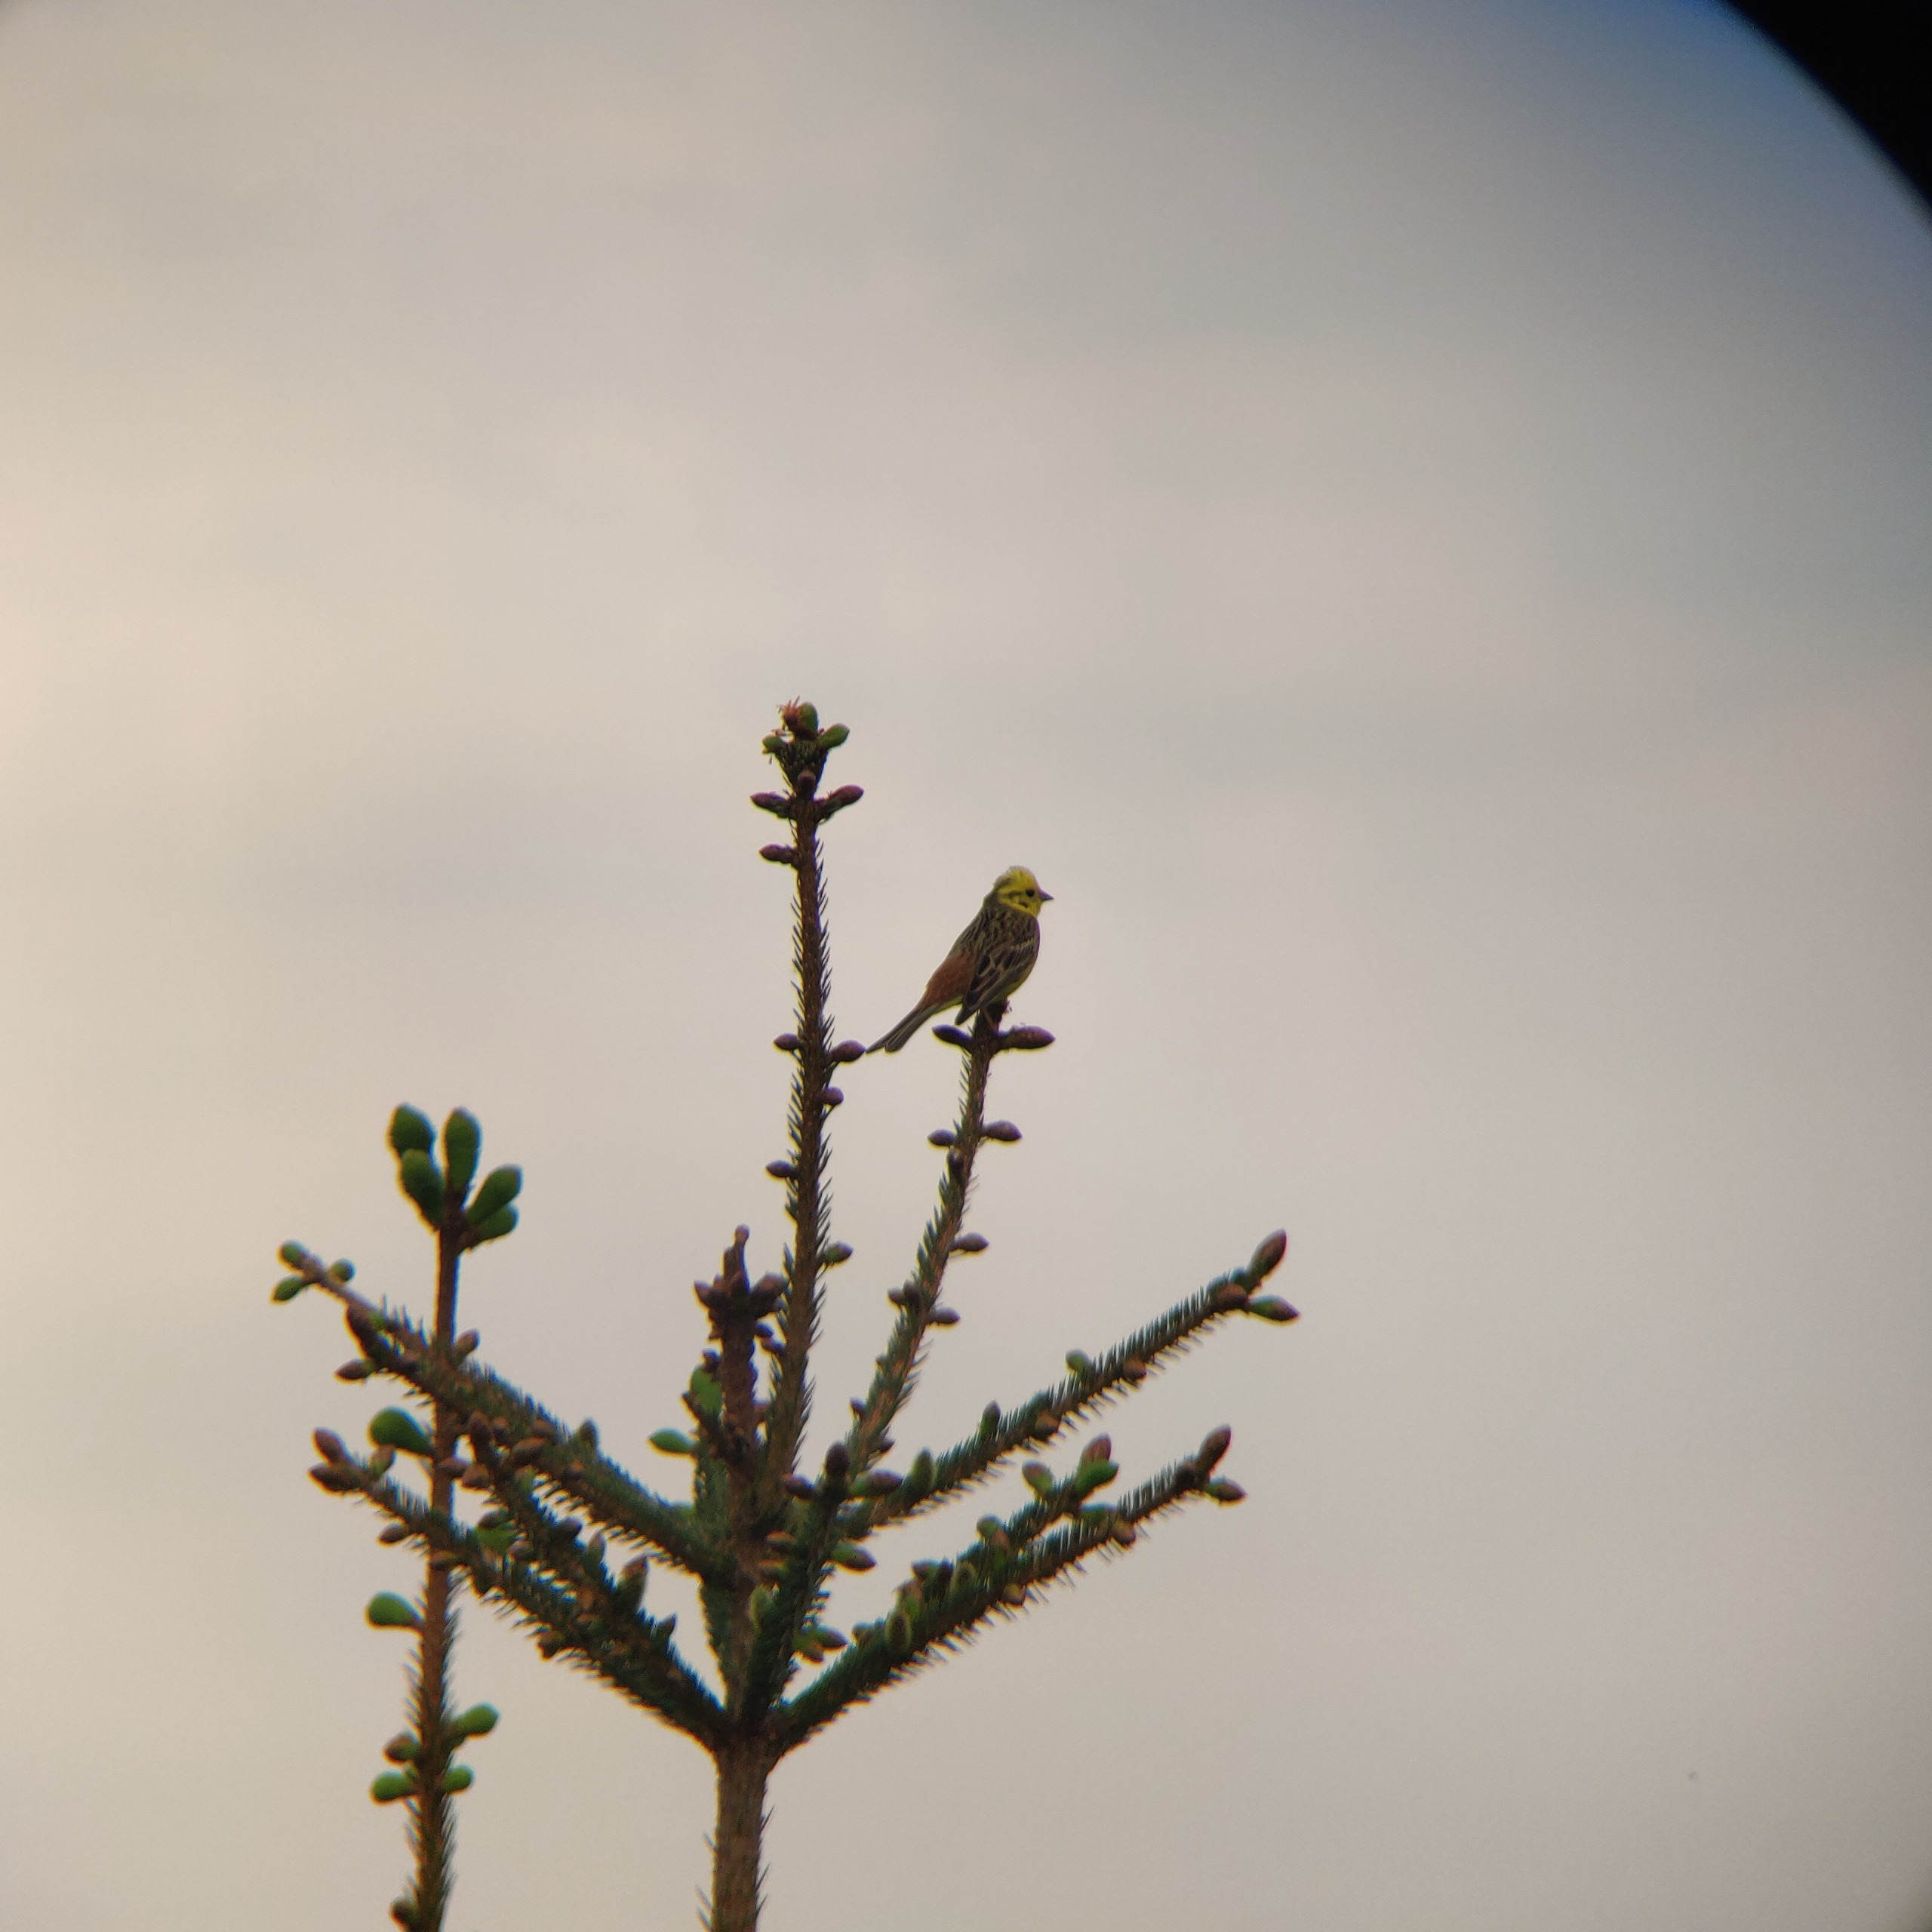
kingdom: Animalia
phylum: Chordata
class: Aves
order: Passeriformes
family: Emberizidae
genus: Emberiza
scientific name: Emberiza citrinella
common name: Gulspurv
